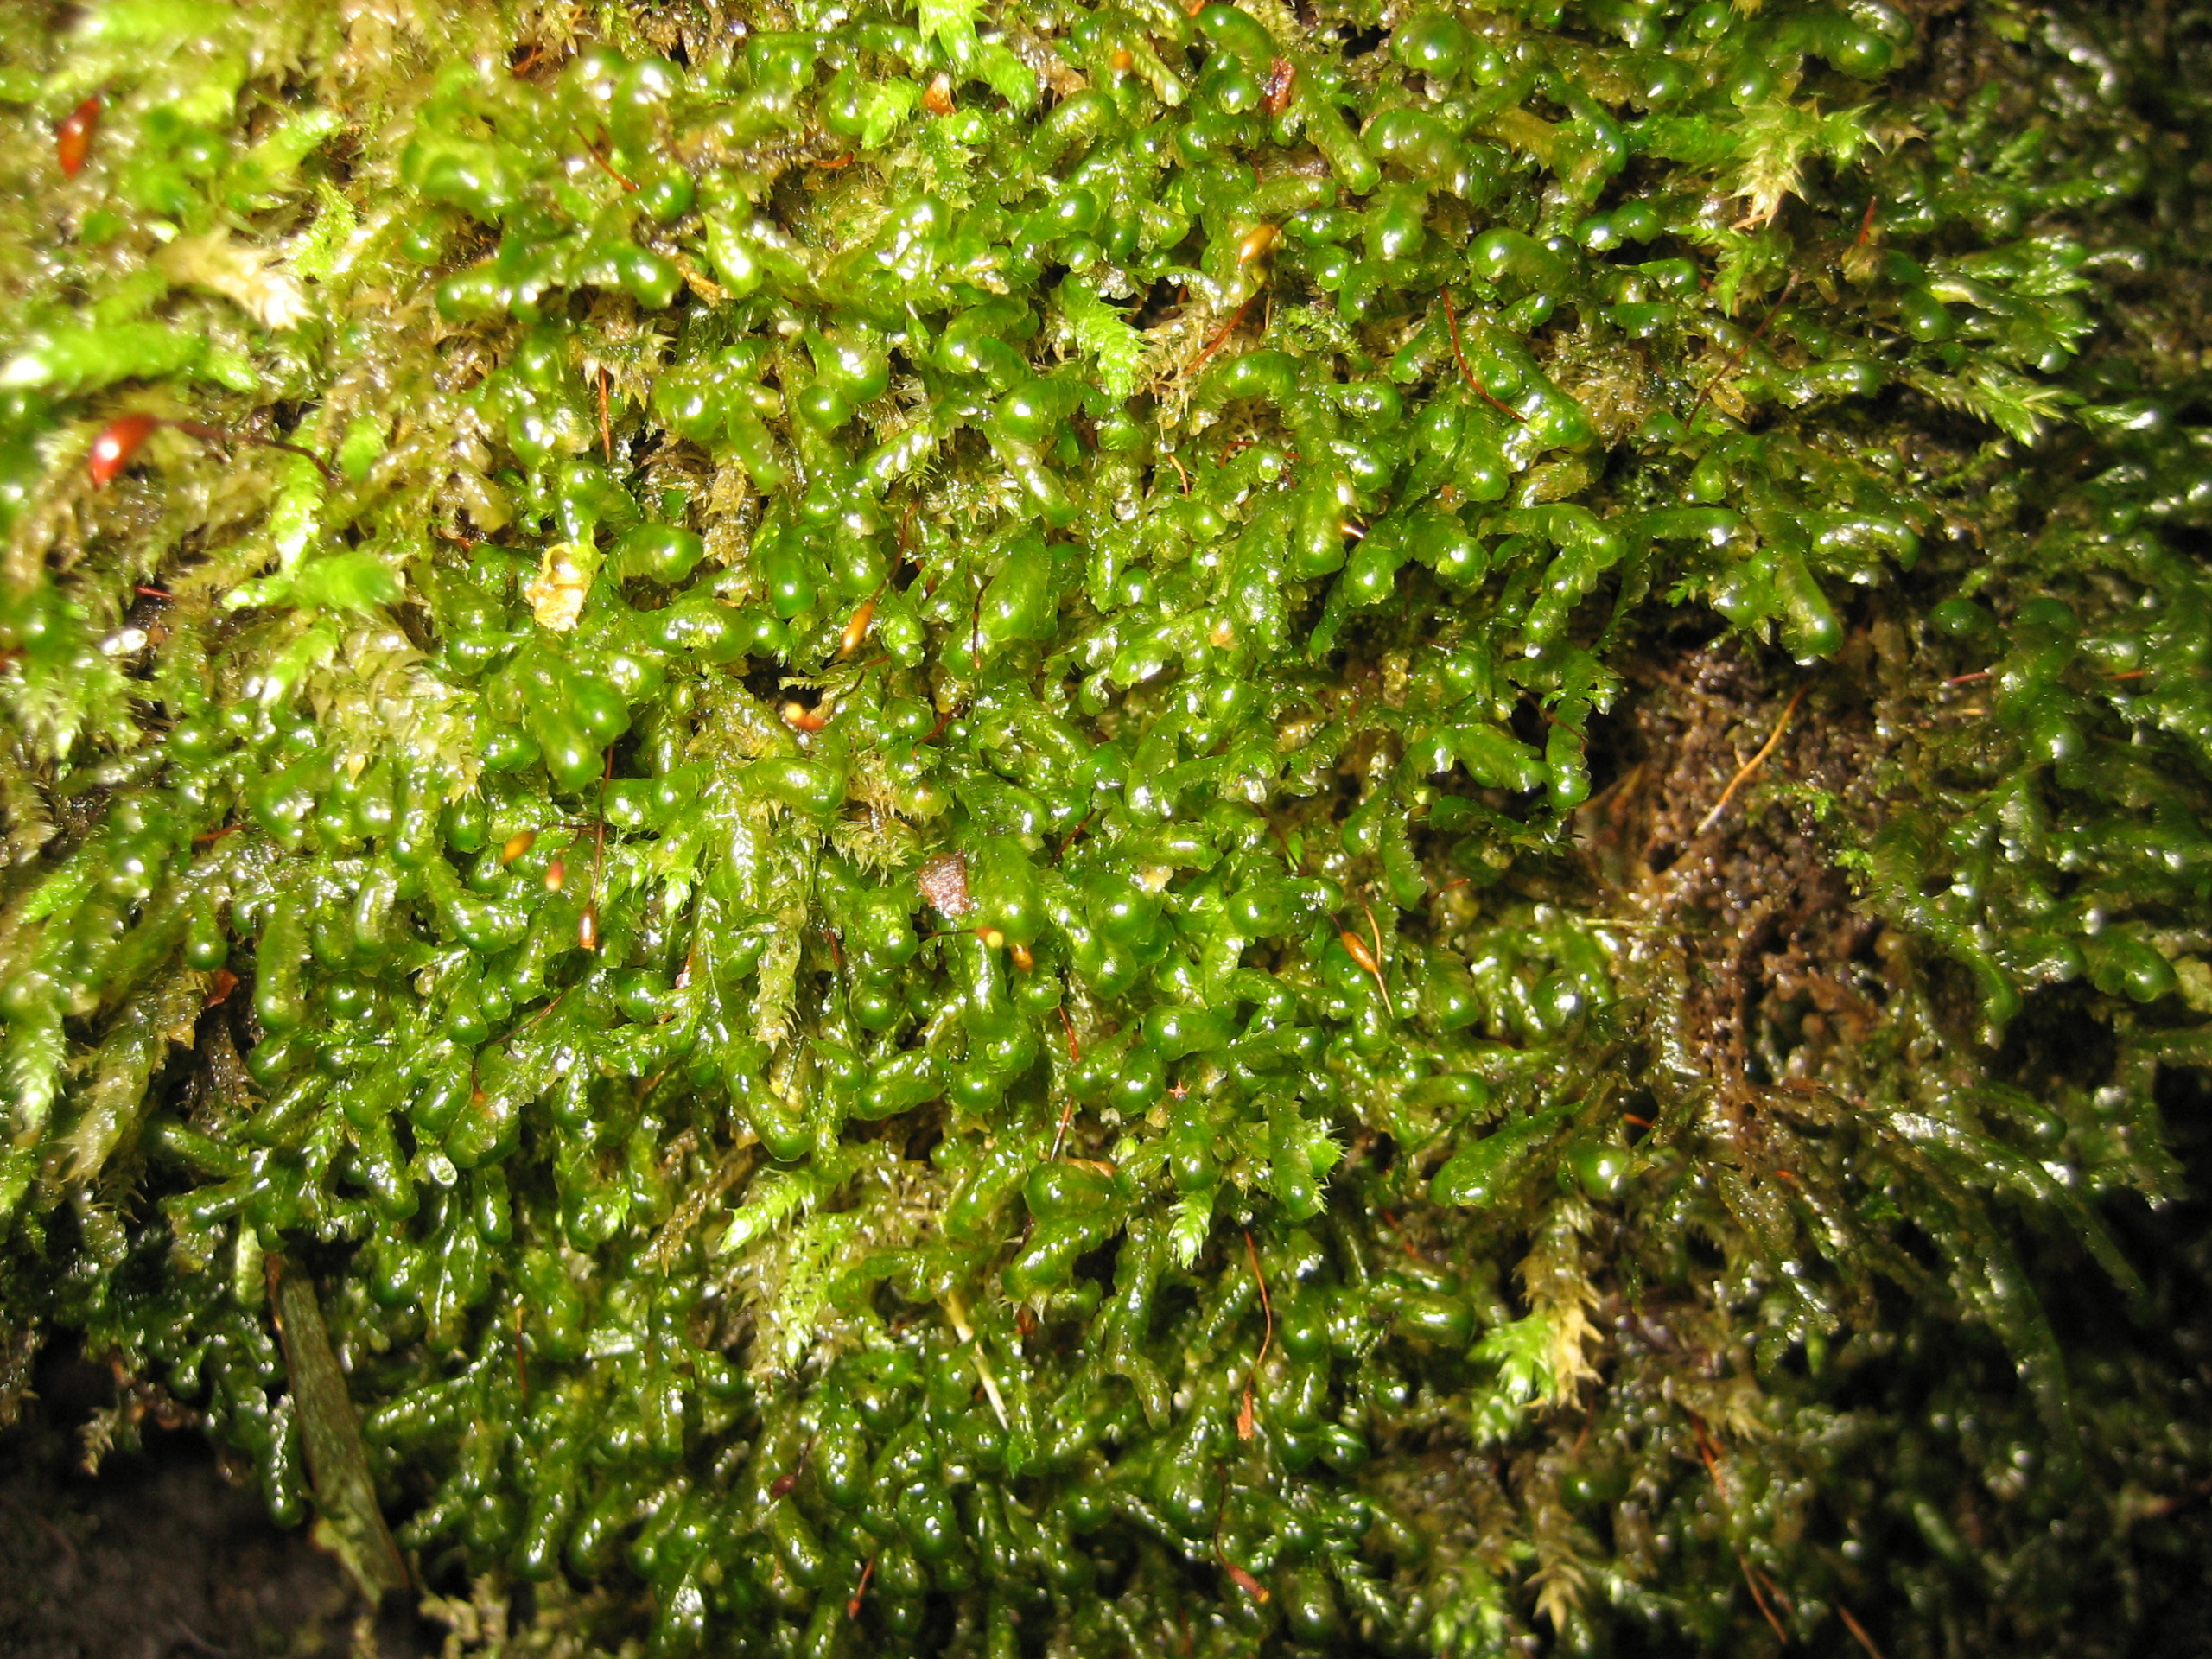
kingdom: Plantae
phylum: Bryophyta
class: Bryopsida
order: Hypnales
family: Neckeraceae
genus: Homalia
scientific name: Homalia trichomanoides
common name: Skov-tungemos
